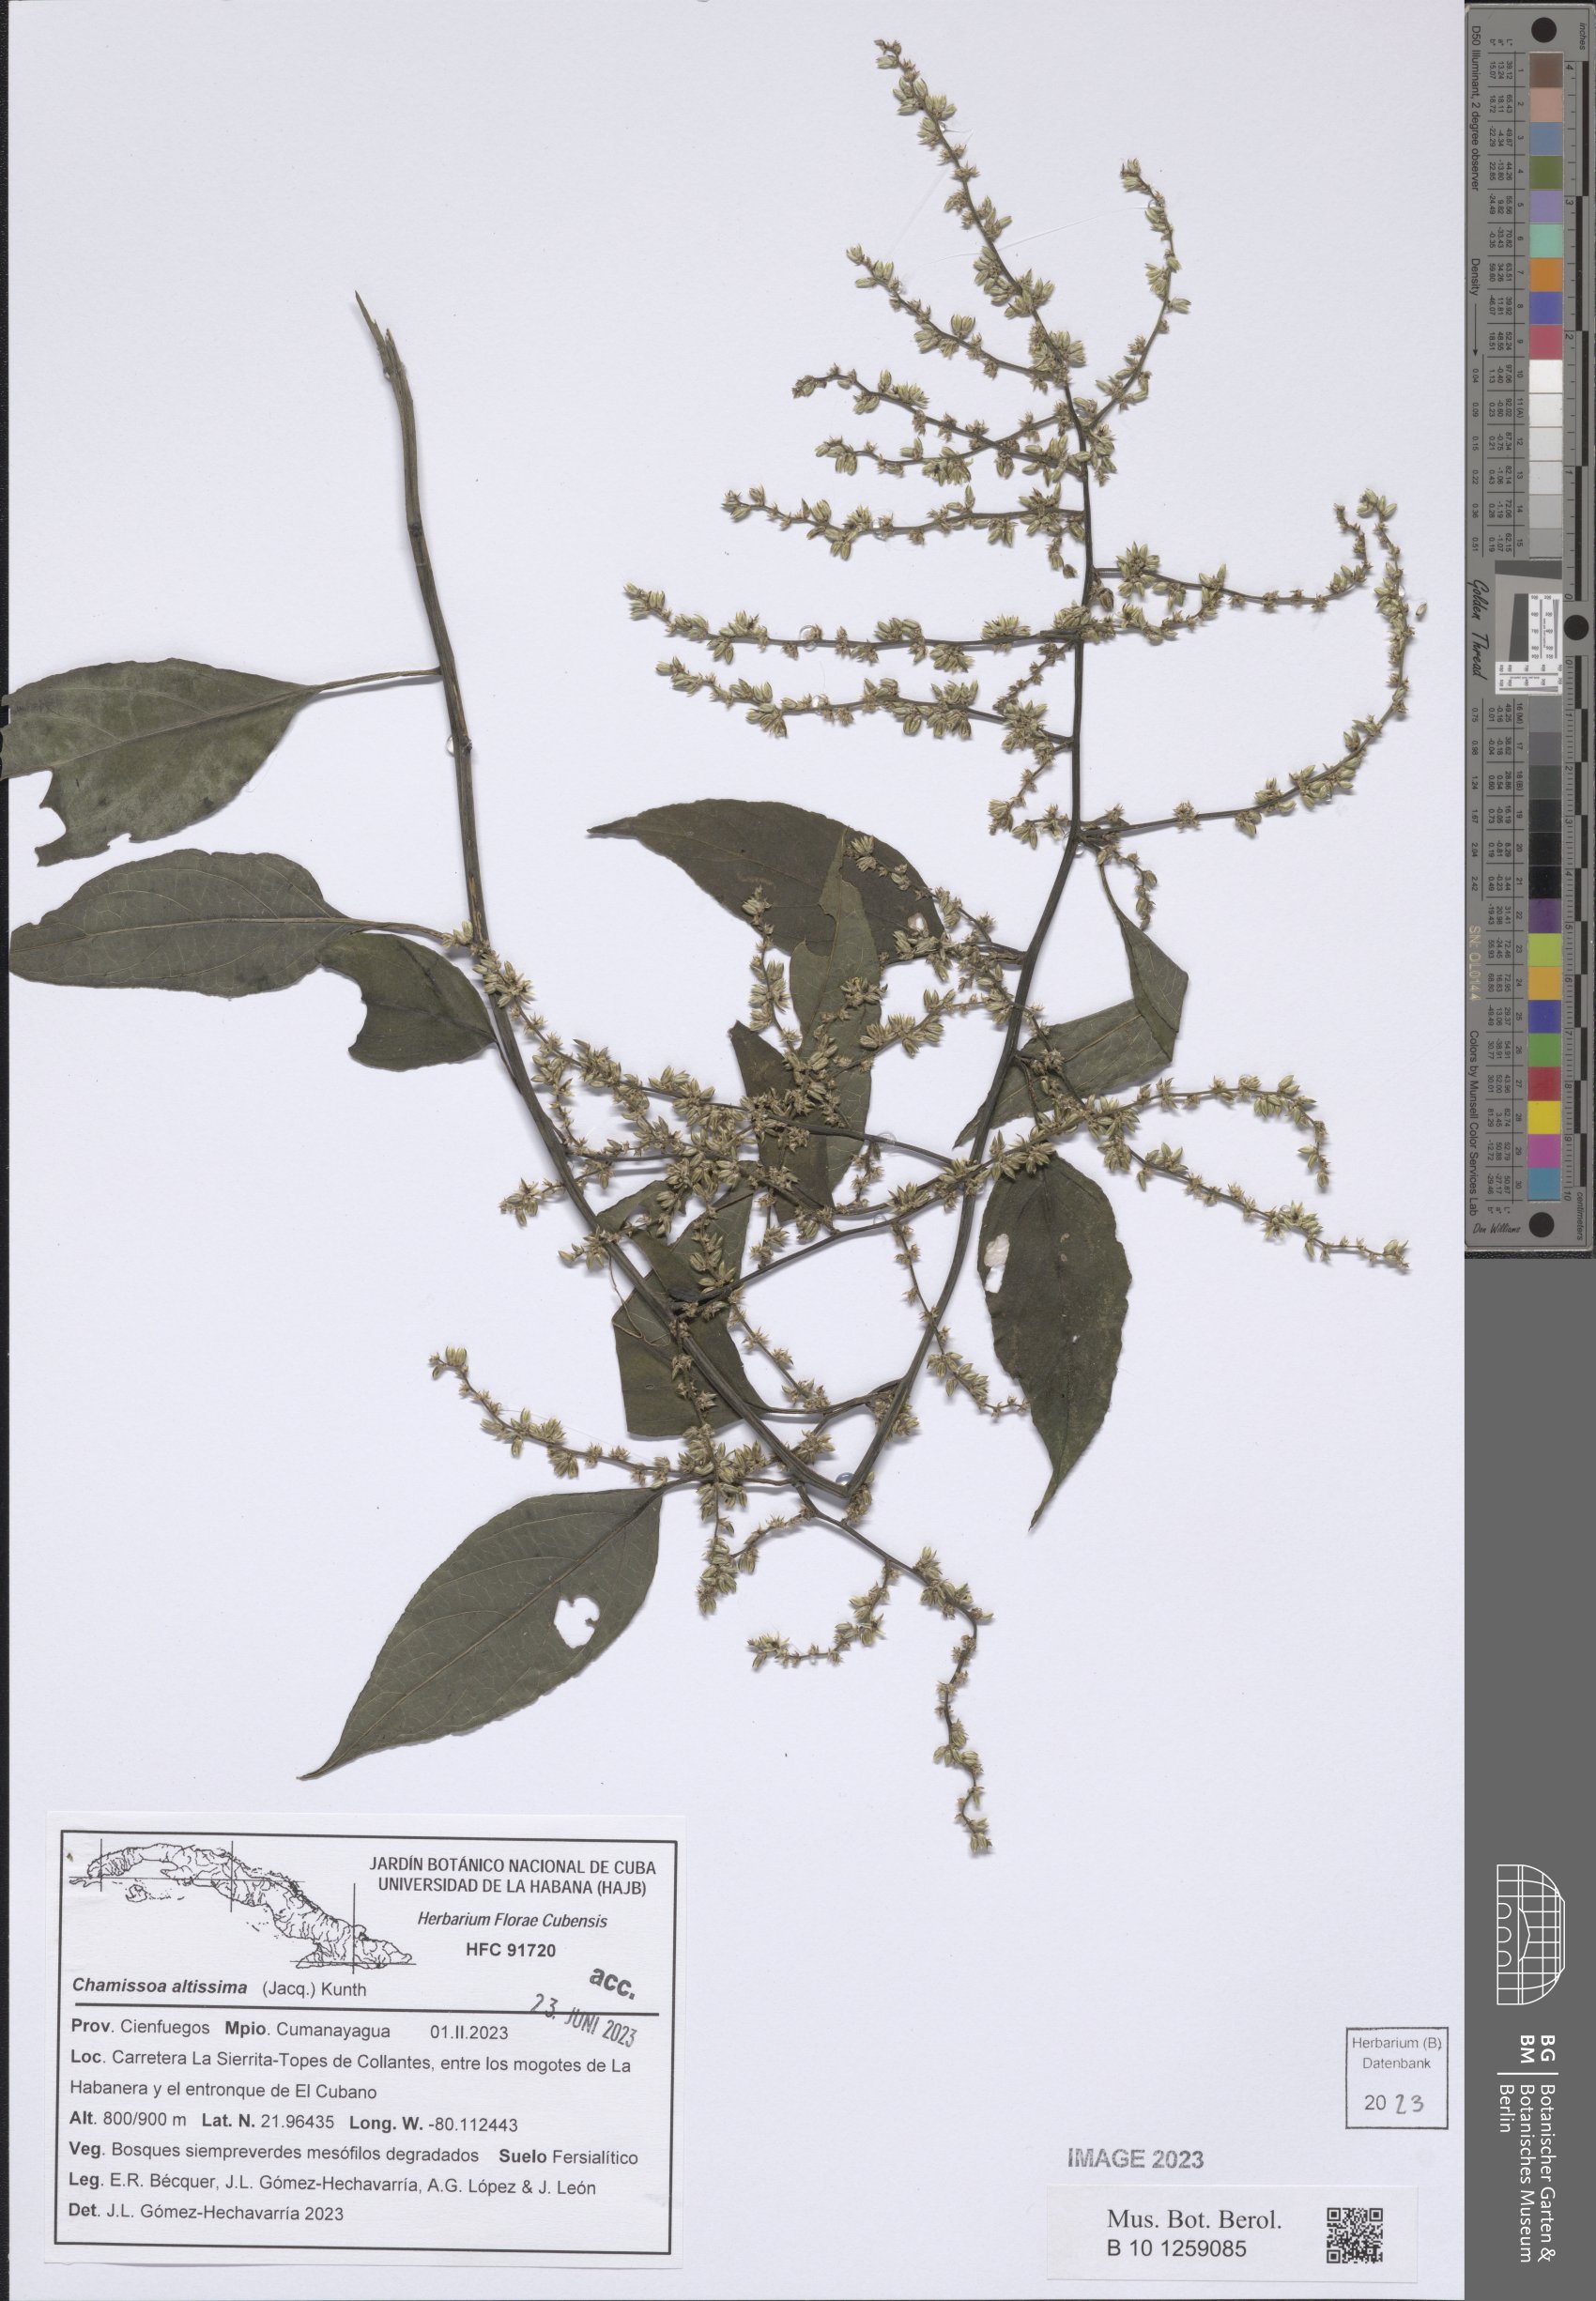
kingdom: Plantae
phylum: Tracheophyta
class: Magnoliopsida
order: Caryophyllales
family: Amaranthaceae
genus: Chamissoa
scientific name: Chamissoa altissima
